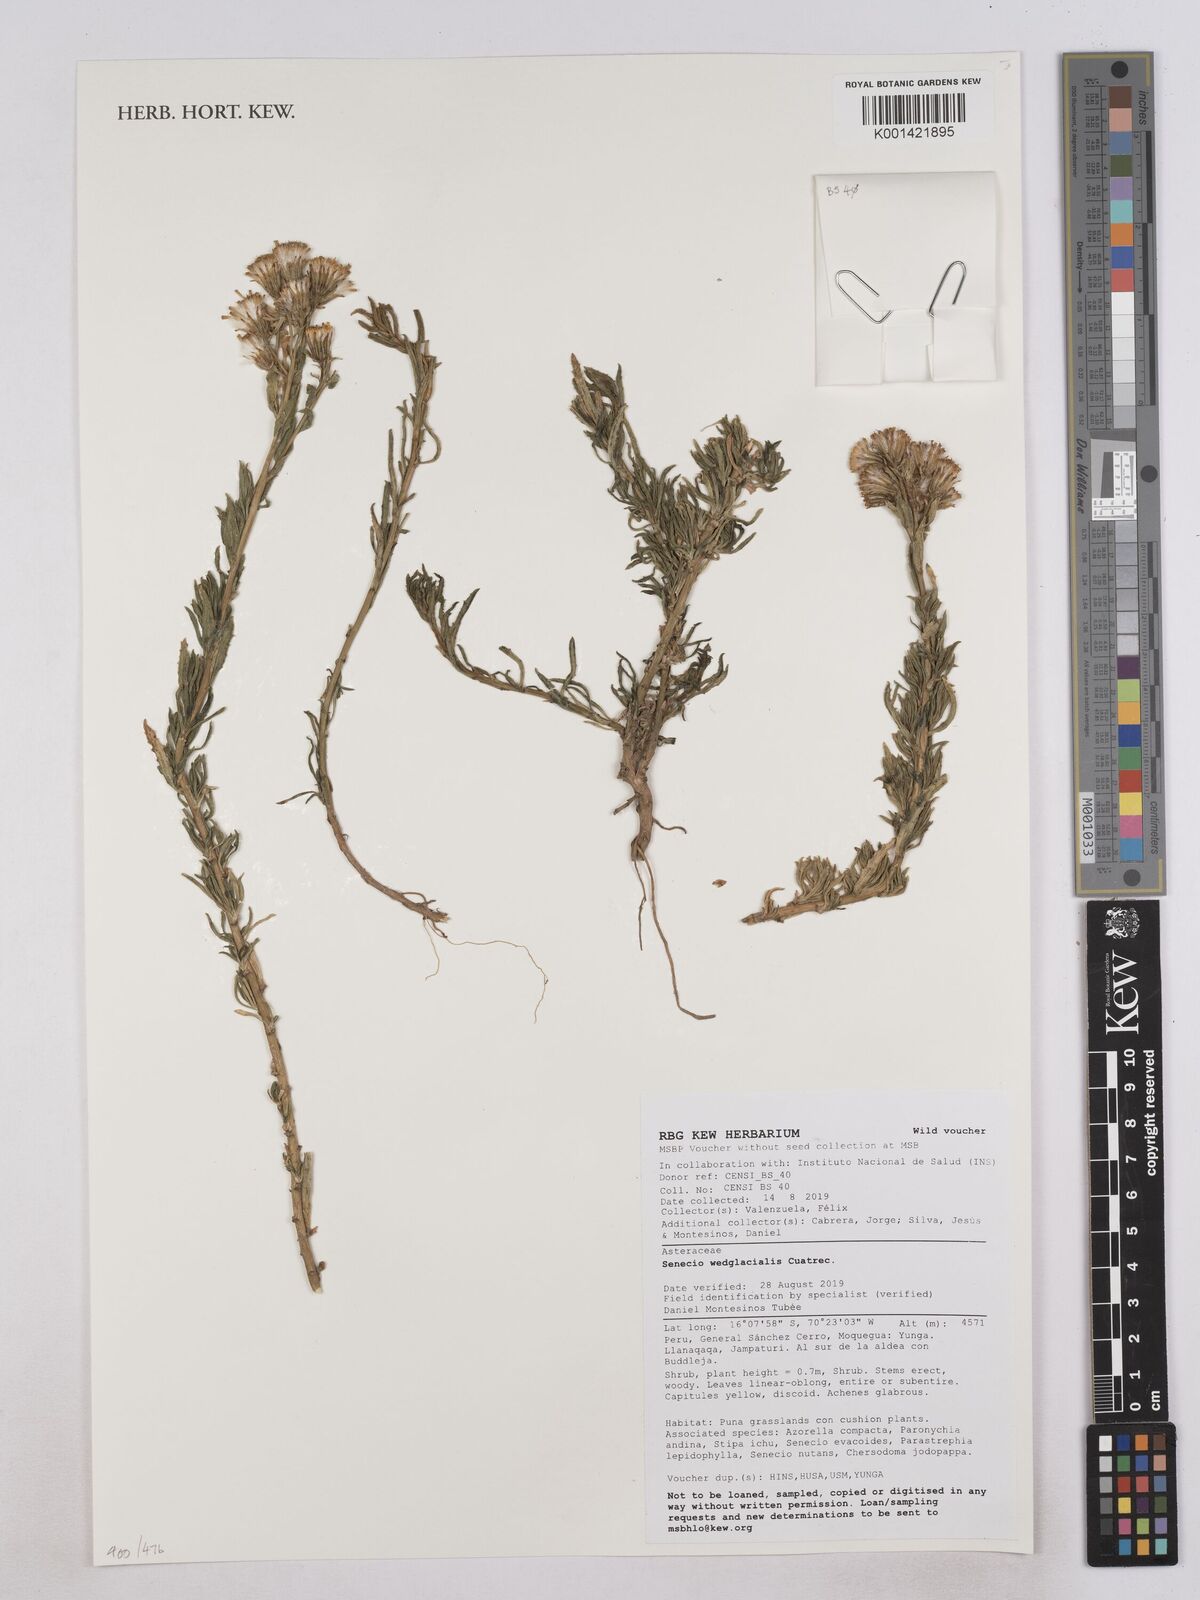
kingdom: Plantae
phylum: Tracheophyta
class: Magnoliopsida
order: Asterales
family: Asteraceae
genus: Senecio
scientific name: Senecio wedglacialis
